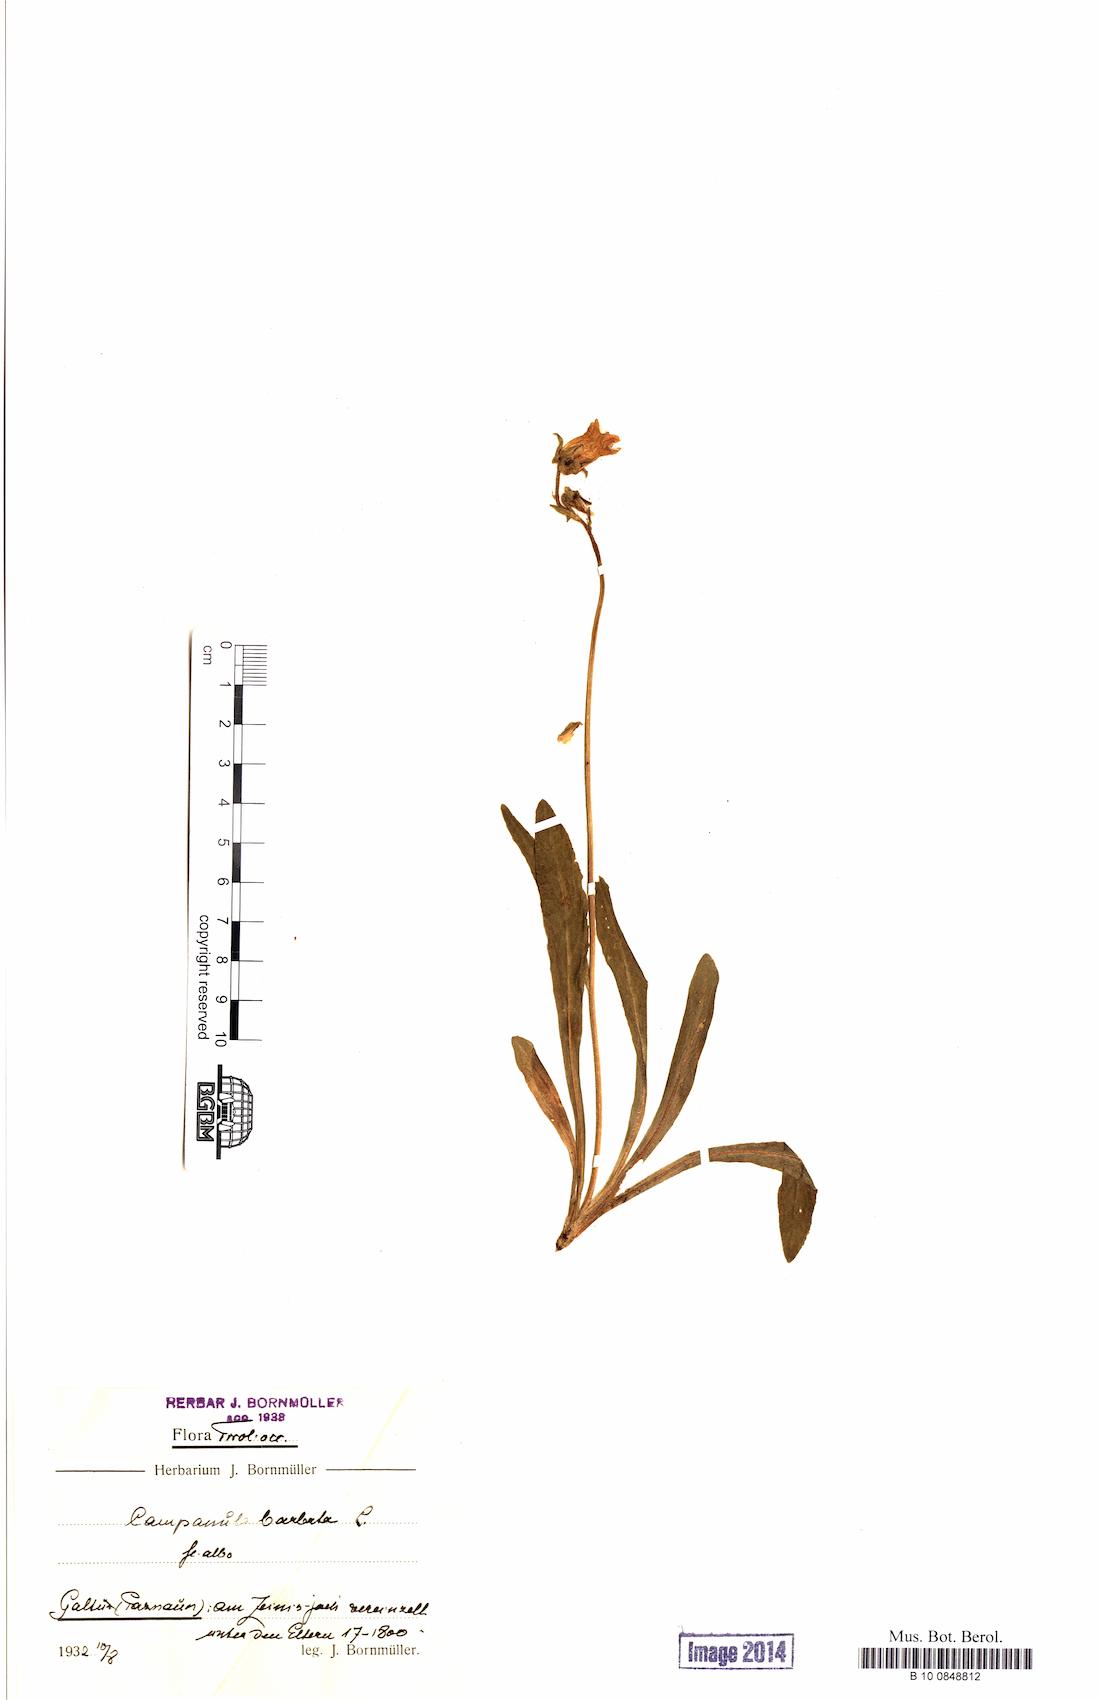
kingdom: Plantae
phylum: Tracheophyta
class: Magnoliopsida
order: Asterales
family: Campanulaceae
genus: Campanula
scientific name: Campanula barbata
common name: Bearded bellflower
